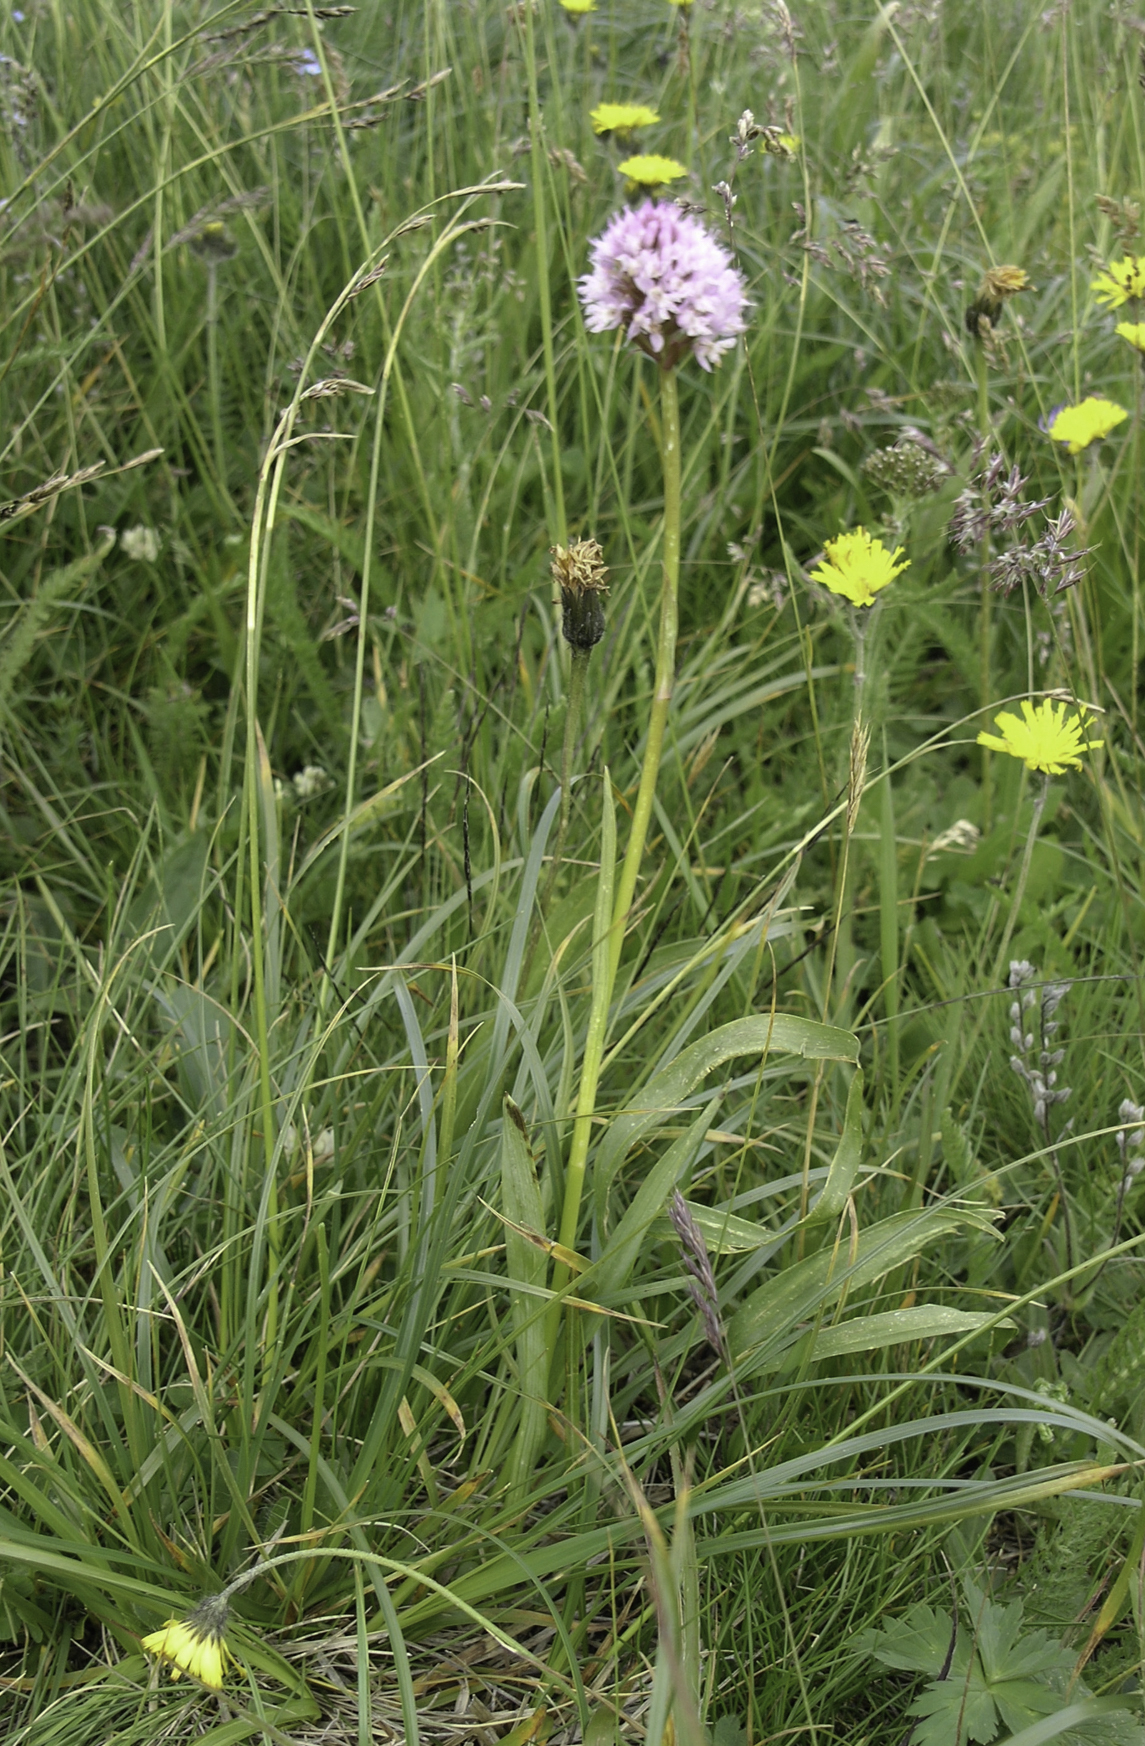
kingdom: Plantae
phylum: Tracheophyta
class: Liliopsida
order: Asparagales
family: Orchidaceae
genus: Traunsteinera
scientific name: Traunsteinera globosa
